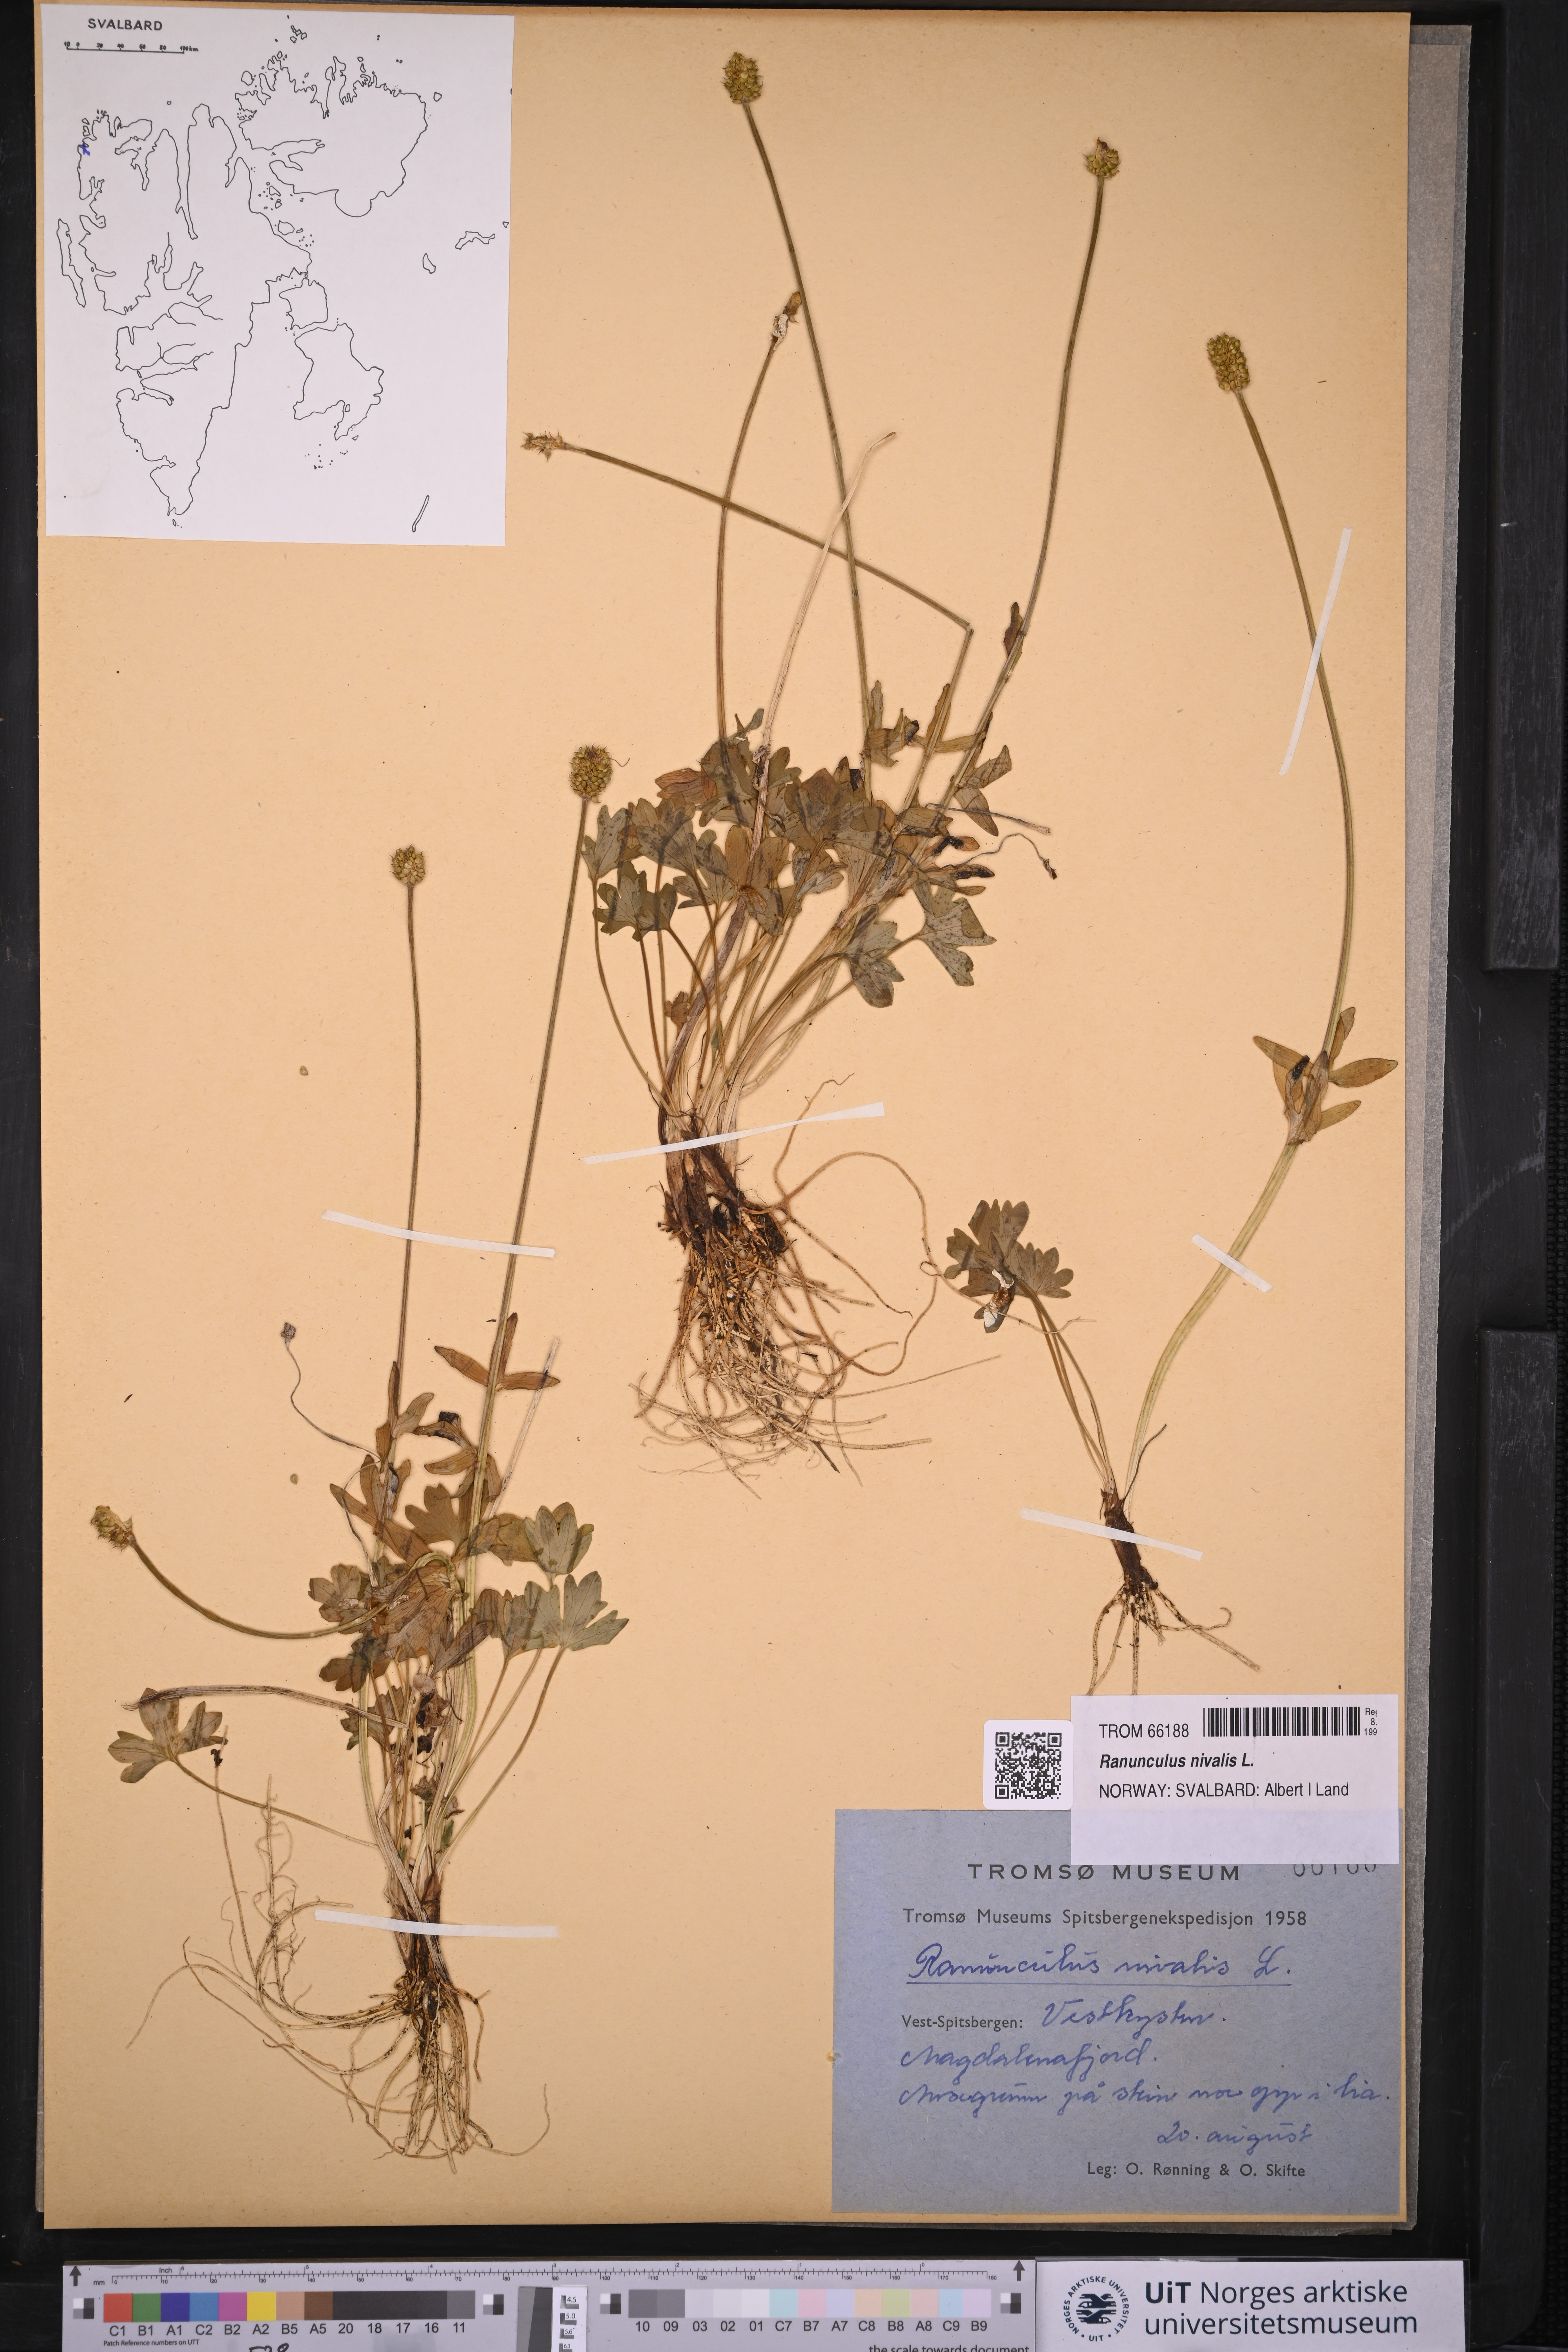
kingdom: Plantae
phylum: Tracheophyta
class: Magnoliopsida
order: Ranunculales
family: Ranunculaceae
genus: Ranunculus
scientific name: Ranunculus nivalis
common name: Snow buttercup
